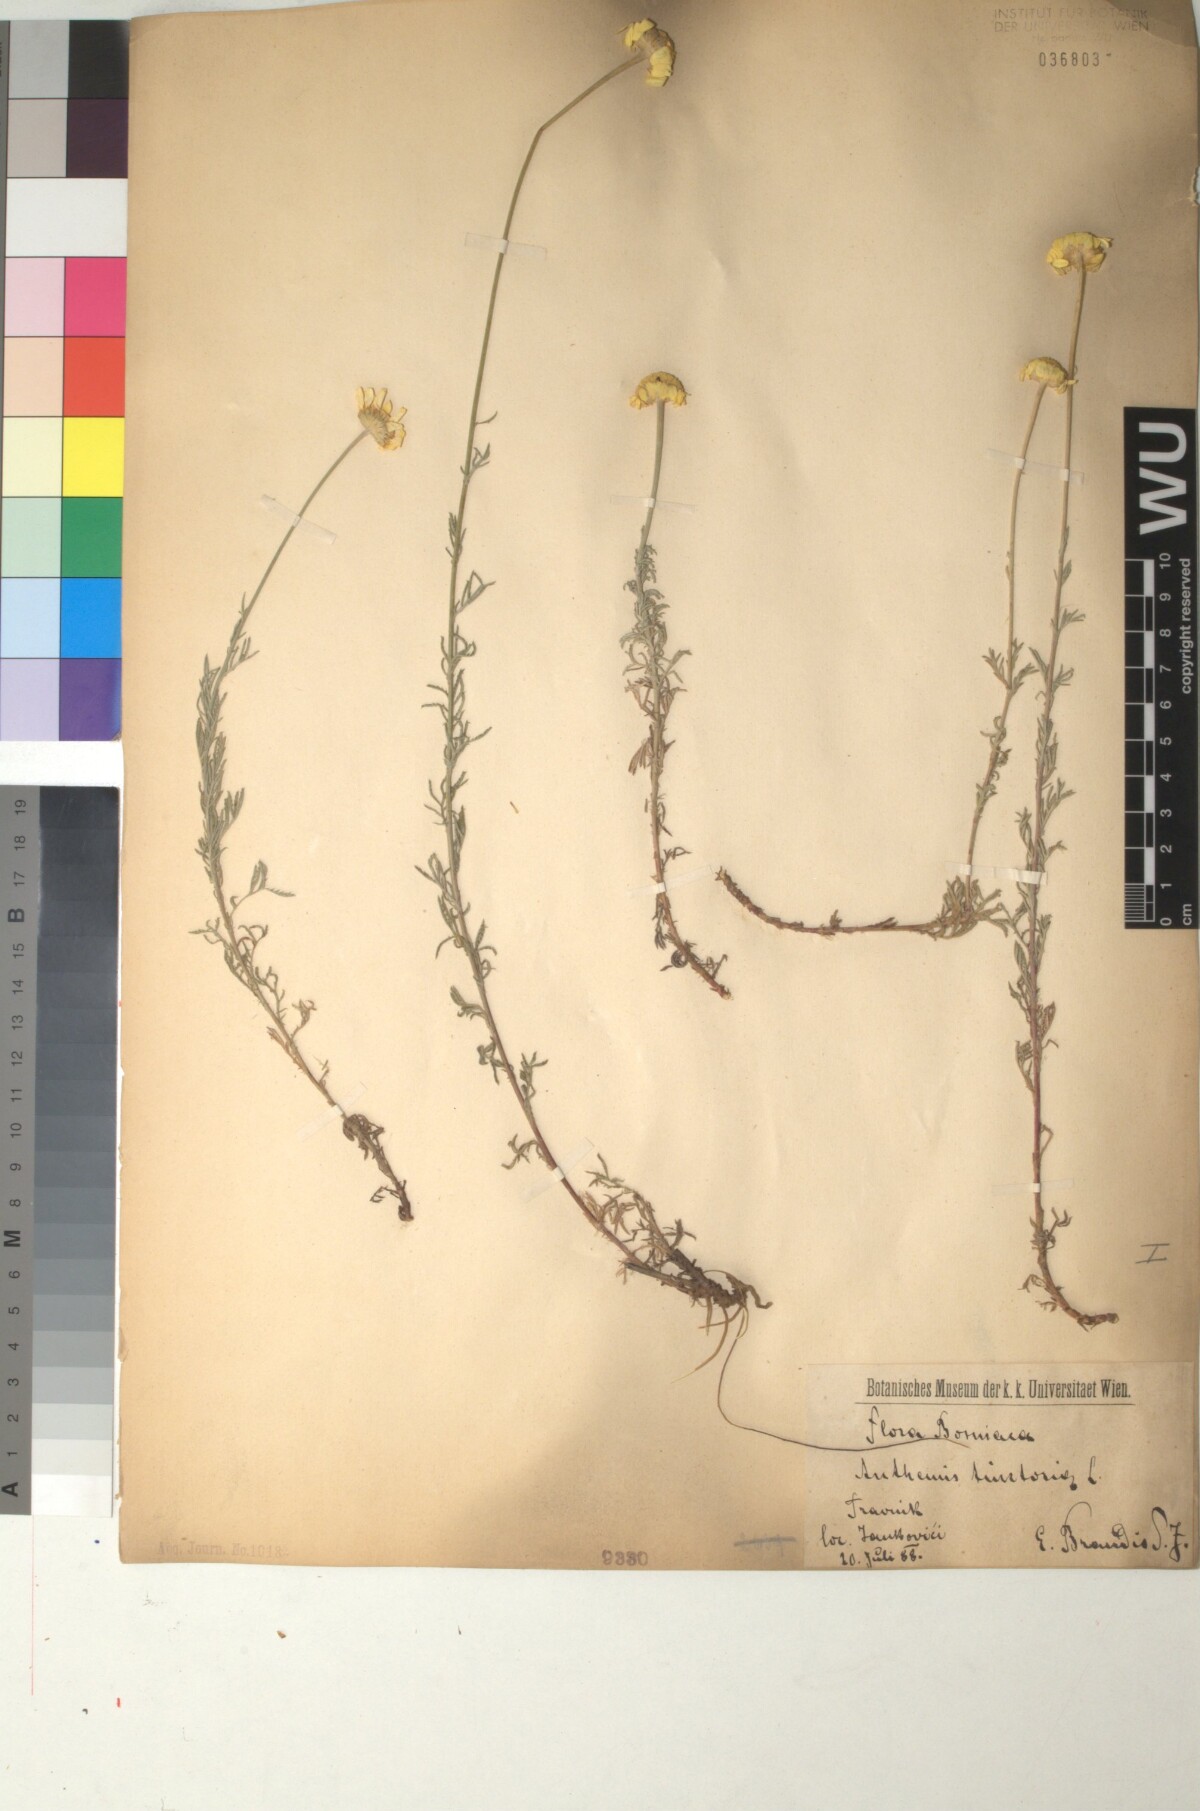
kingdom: Plantae
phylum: Tracheophyta
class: Magnoliopsida
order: Asterales
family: Asteraceae
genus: Cota
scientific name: Cota tinctoria
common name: Golden chamomile
